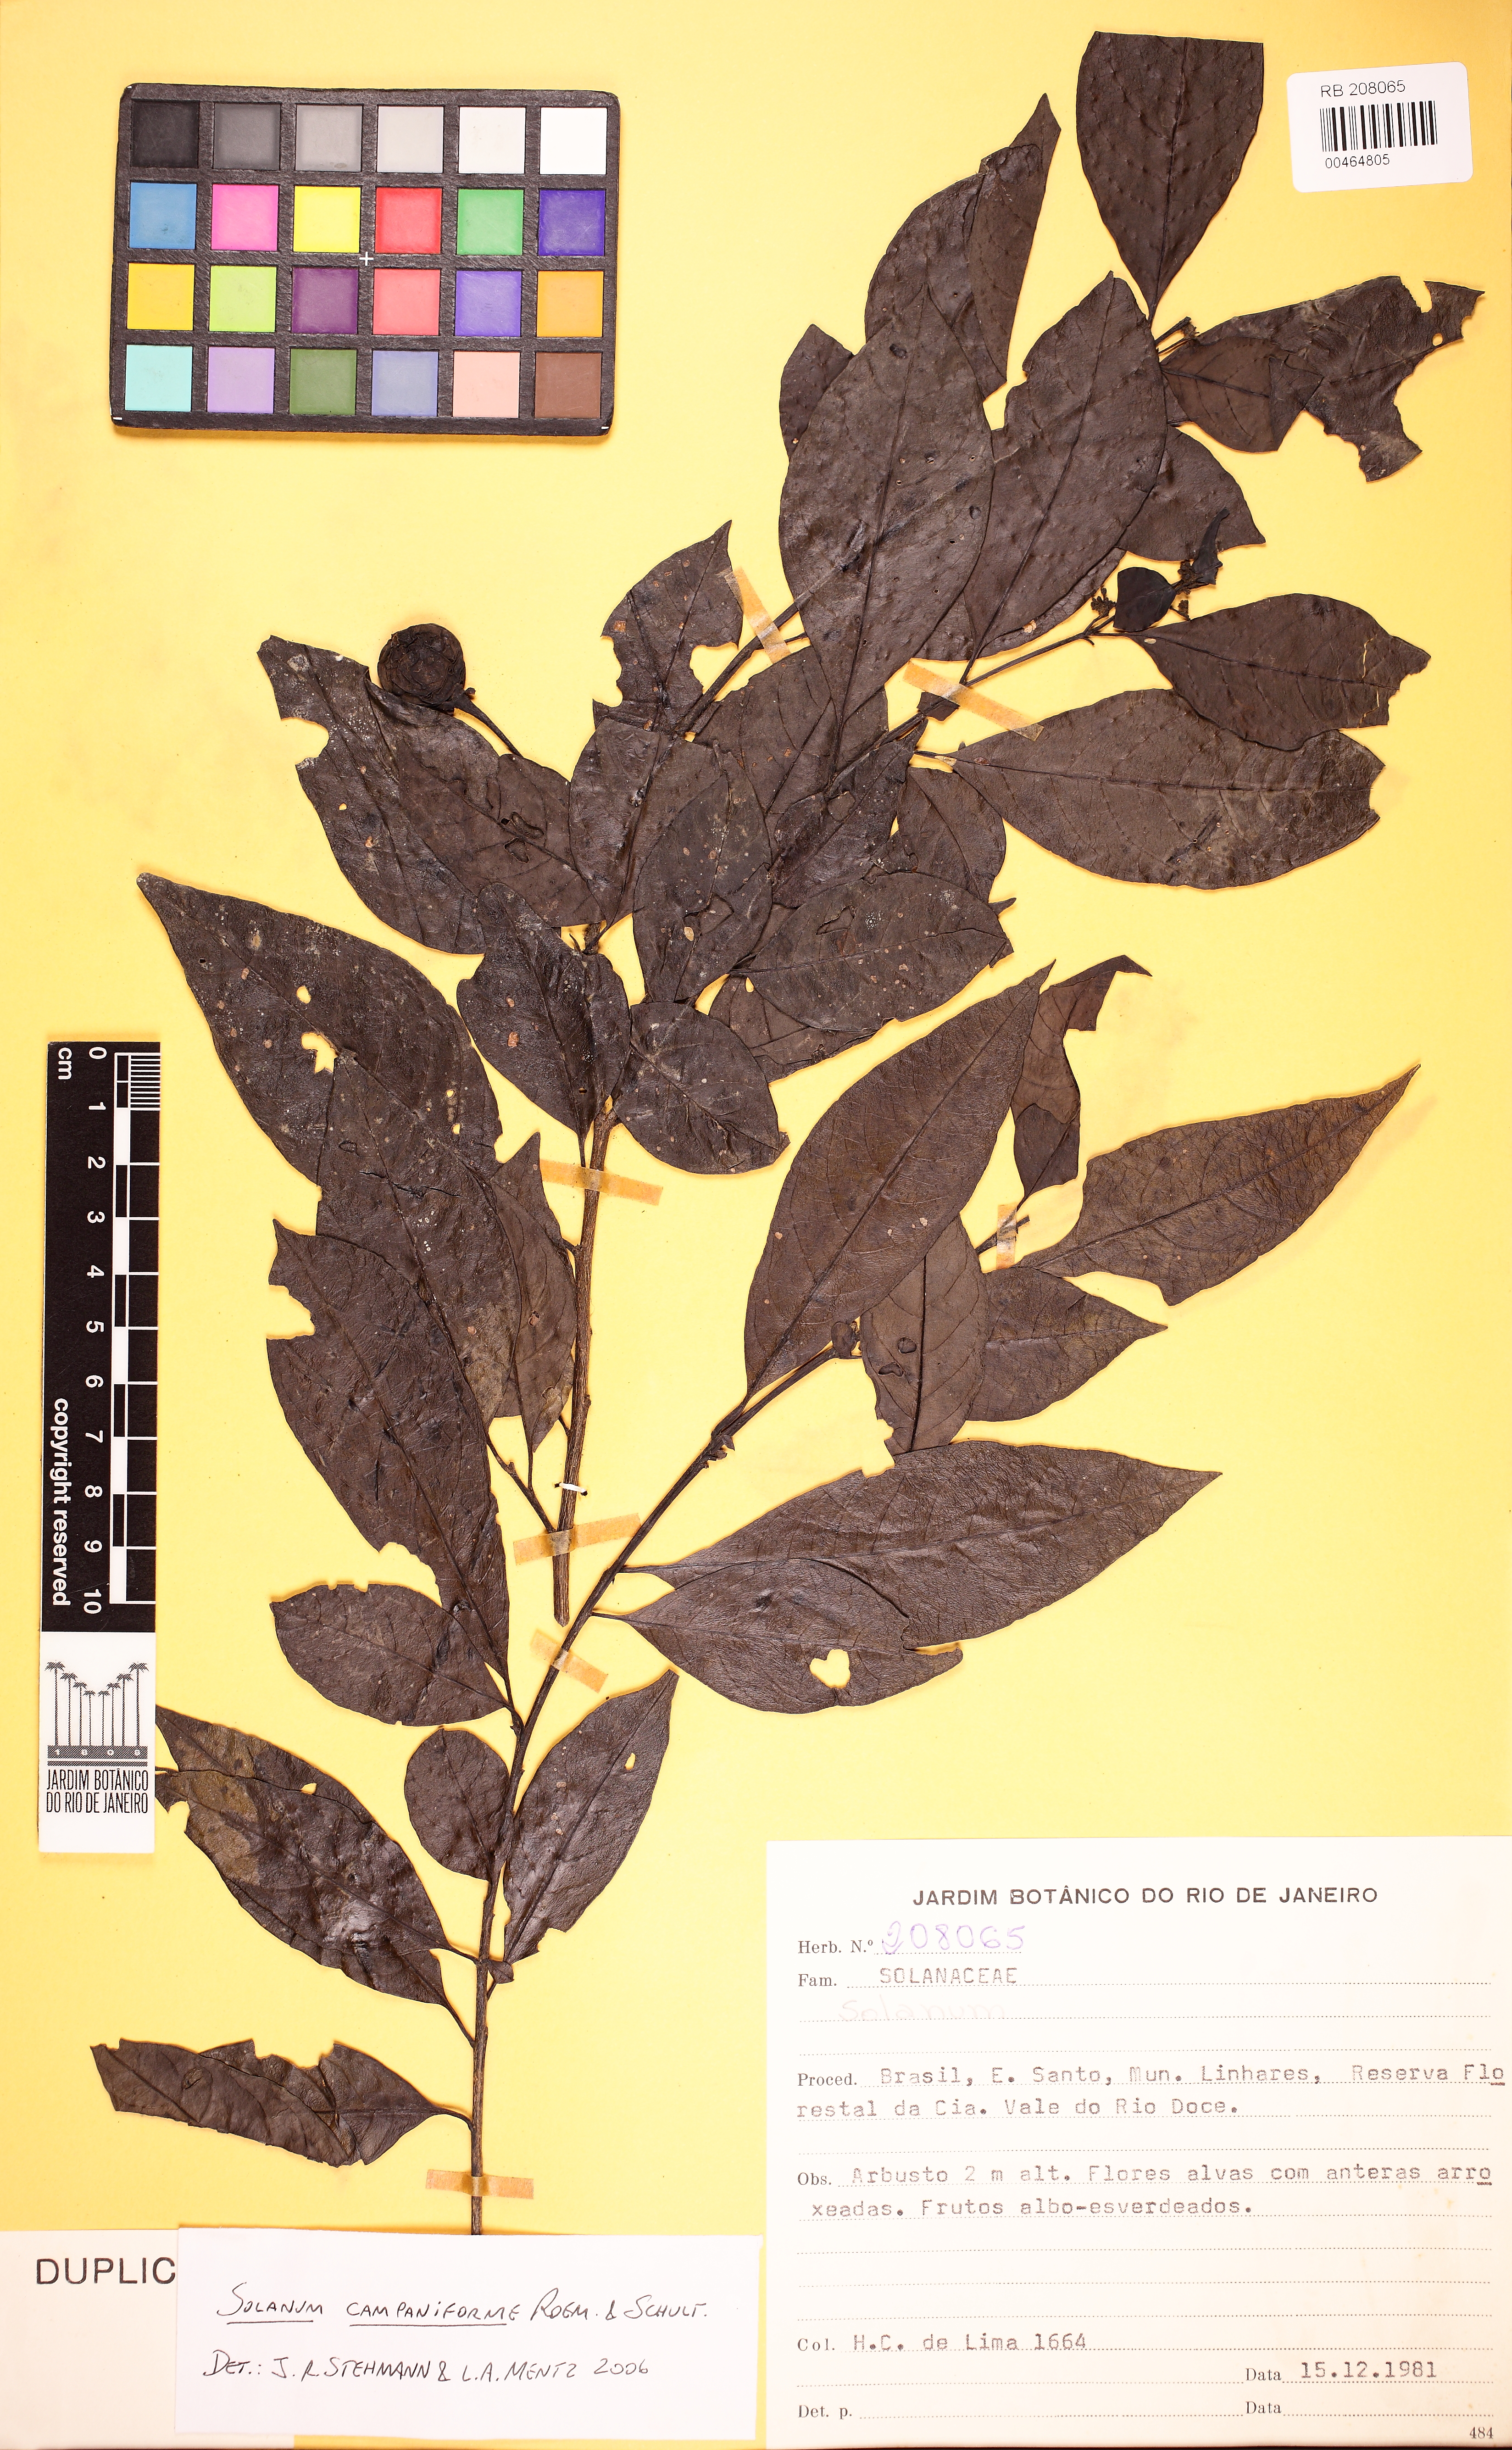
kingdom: Plantae
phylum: Tracheophyta
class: Magnoliopsida
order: Solanales
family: Solanaceae
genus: Solanum
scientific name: Solanum campaniforme
